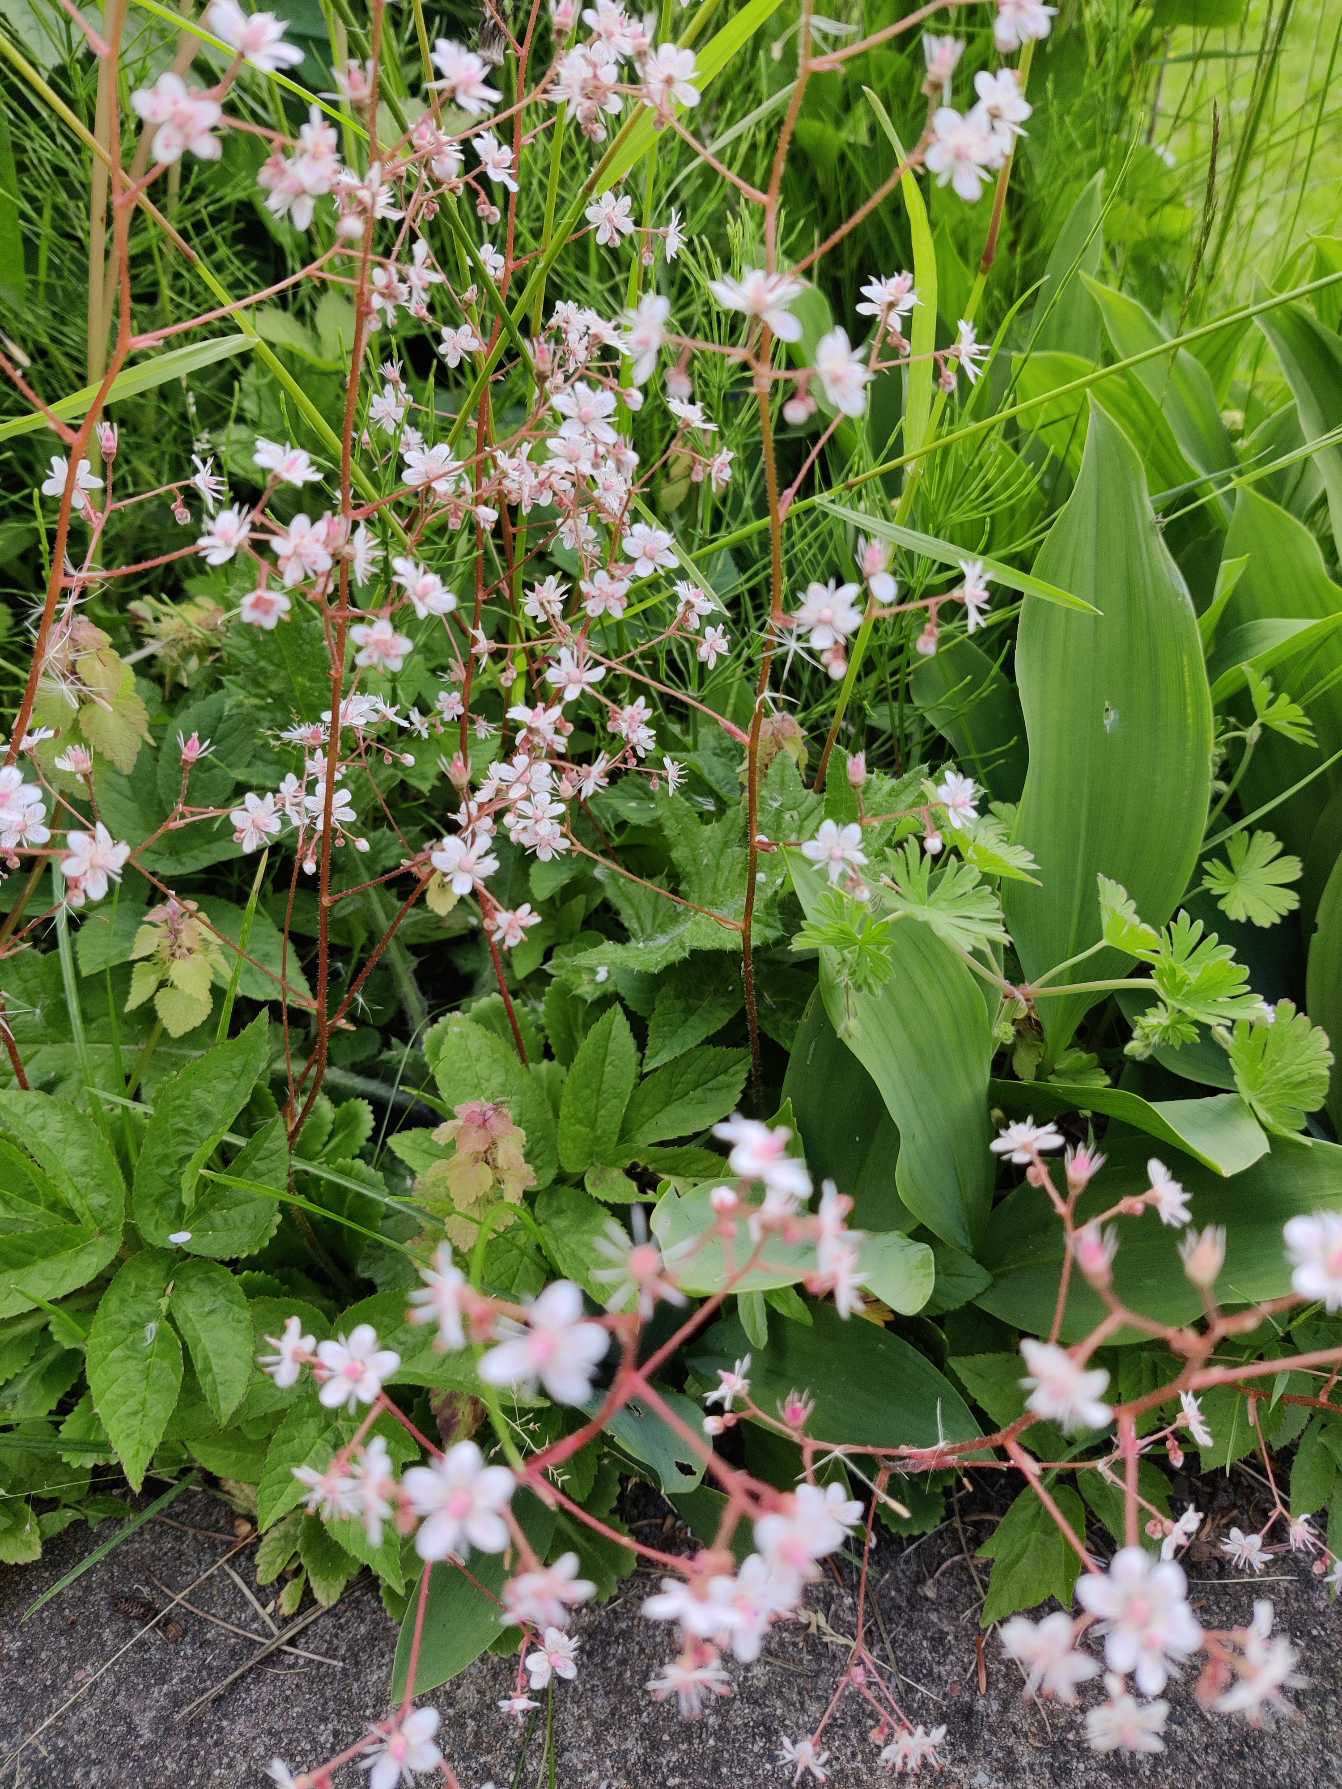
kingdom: Plantae
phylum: Tracheophyta
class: Magnoliopsida
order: Saxifragales
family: Saxifragaceae
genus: Saxifraga
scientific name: Saxifraga umbrosa
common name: Skygge-stenbræk
